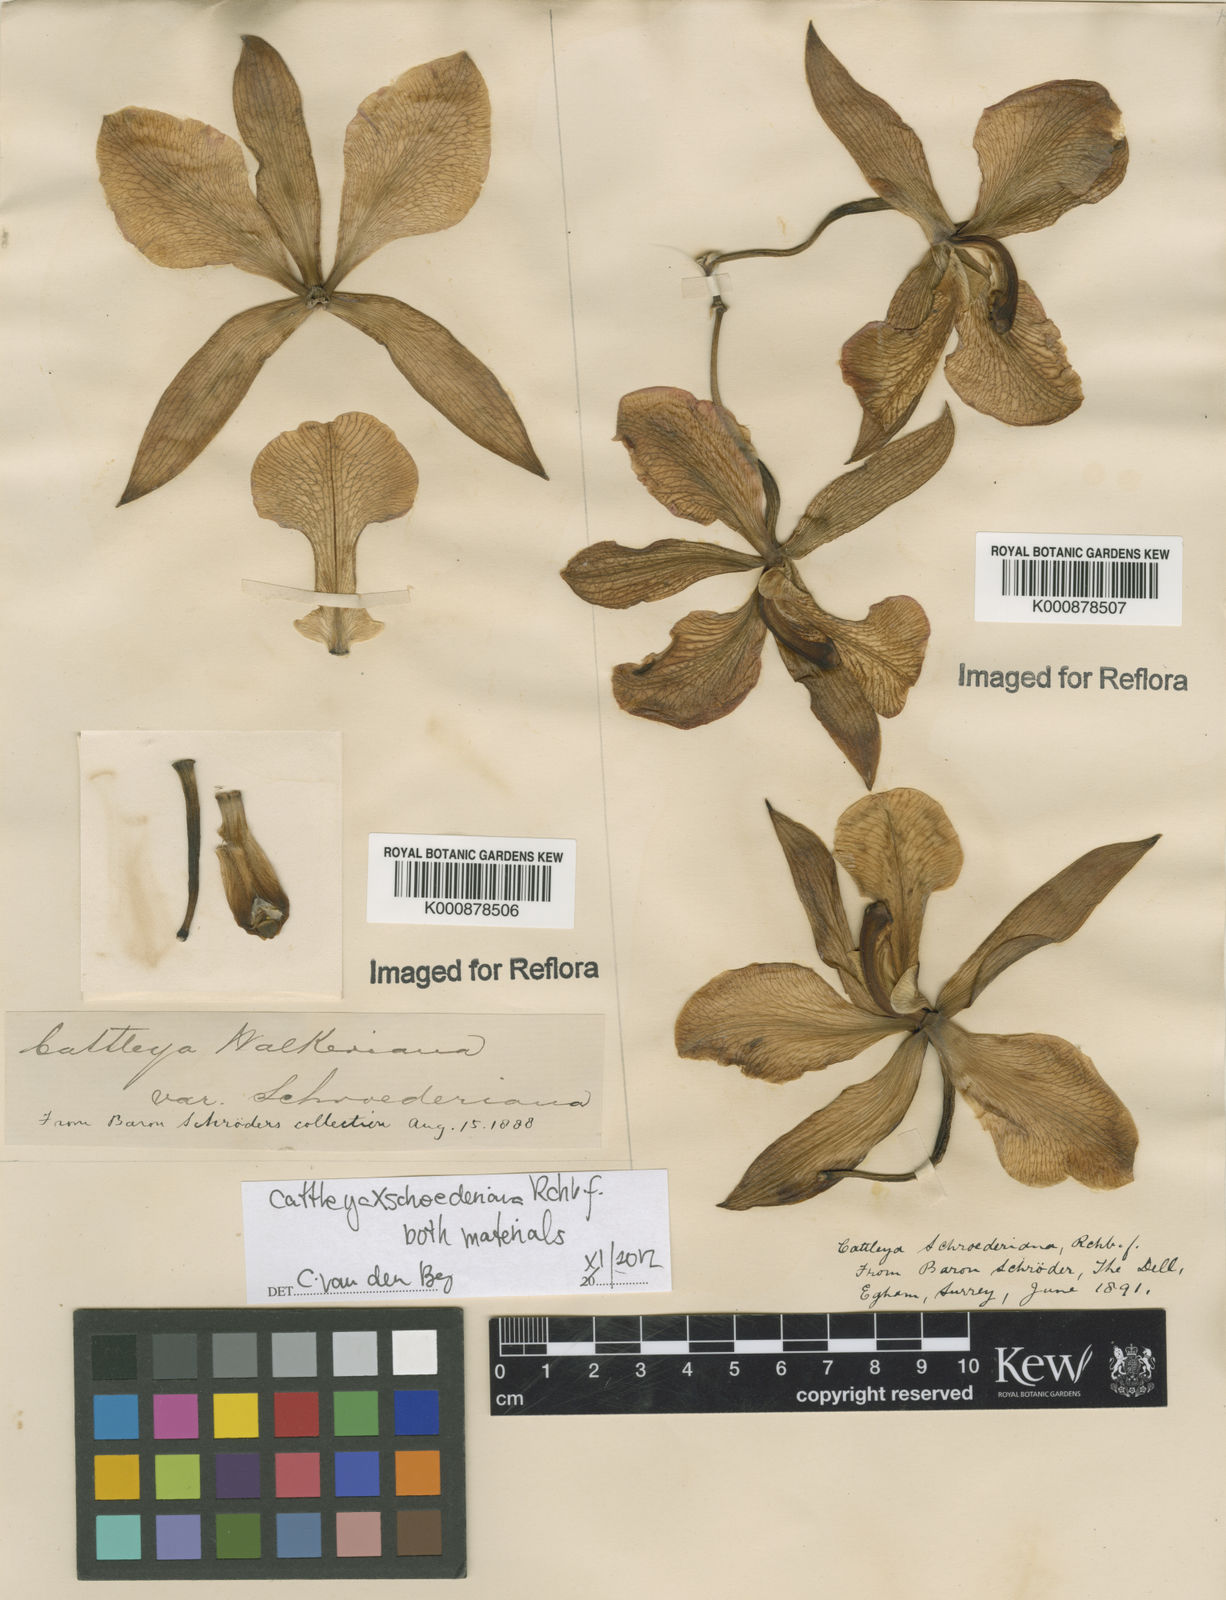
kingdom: Plantae
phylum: Tracheophyta
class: Liliopsida
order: Asparagales
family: Orchidaceae
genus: Cattleya
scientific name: Cattleya schroederiana
